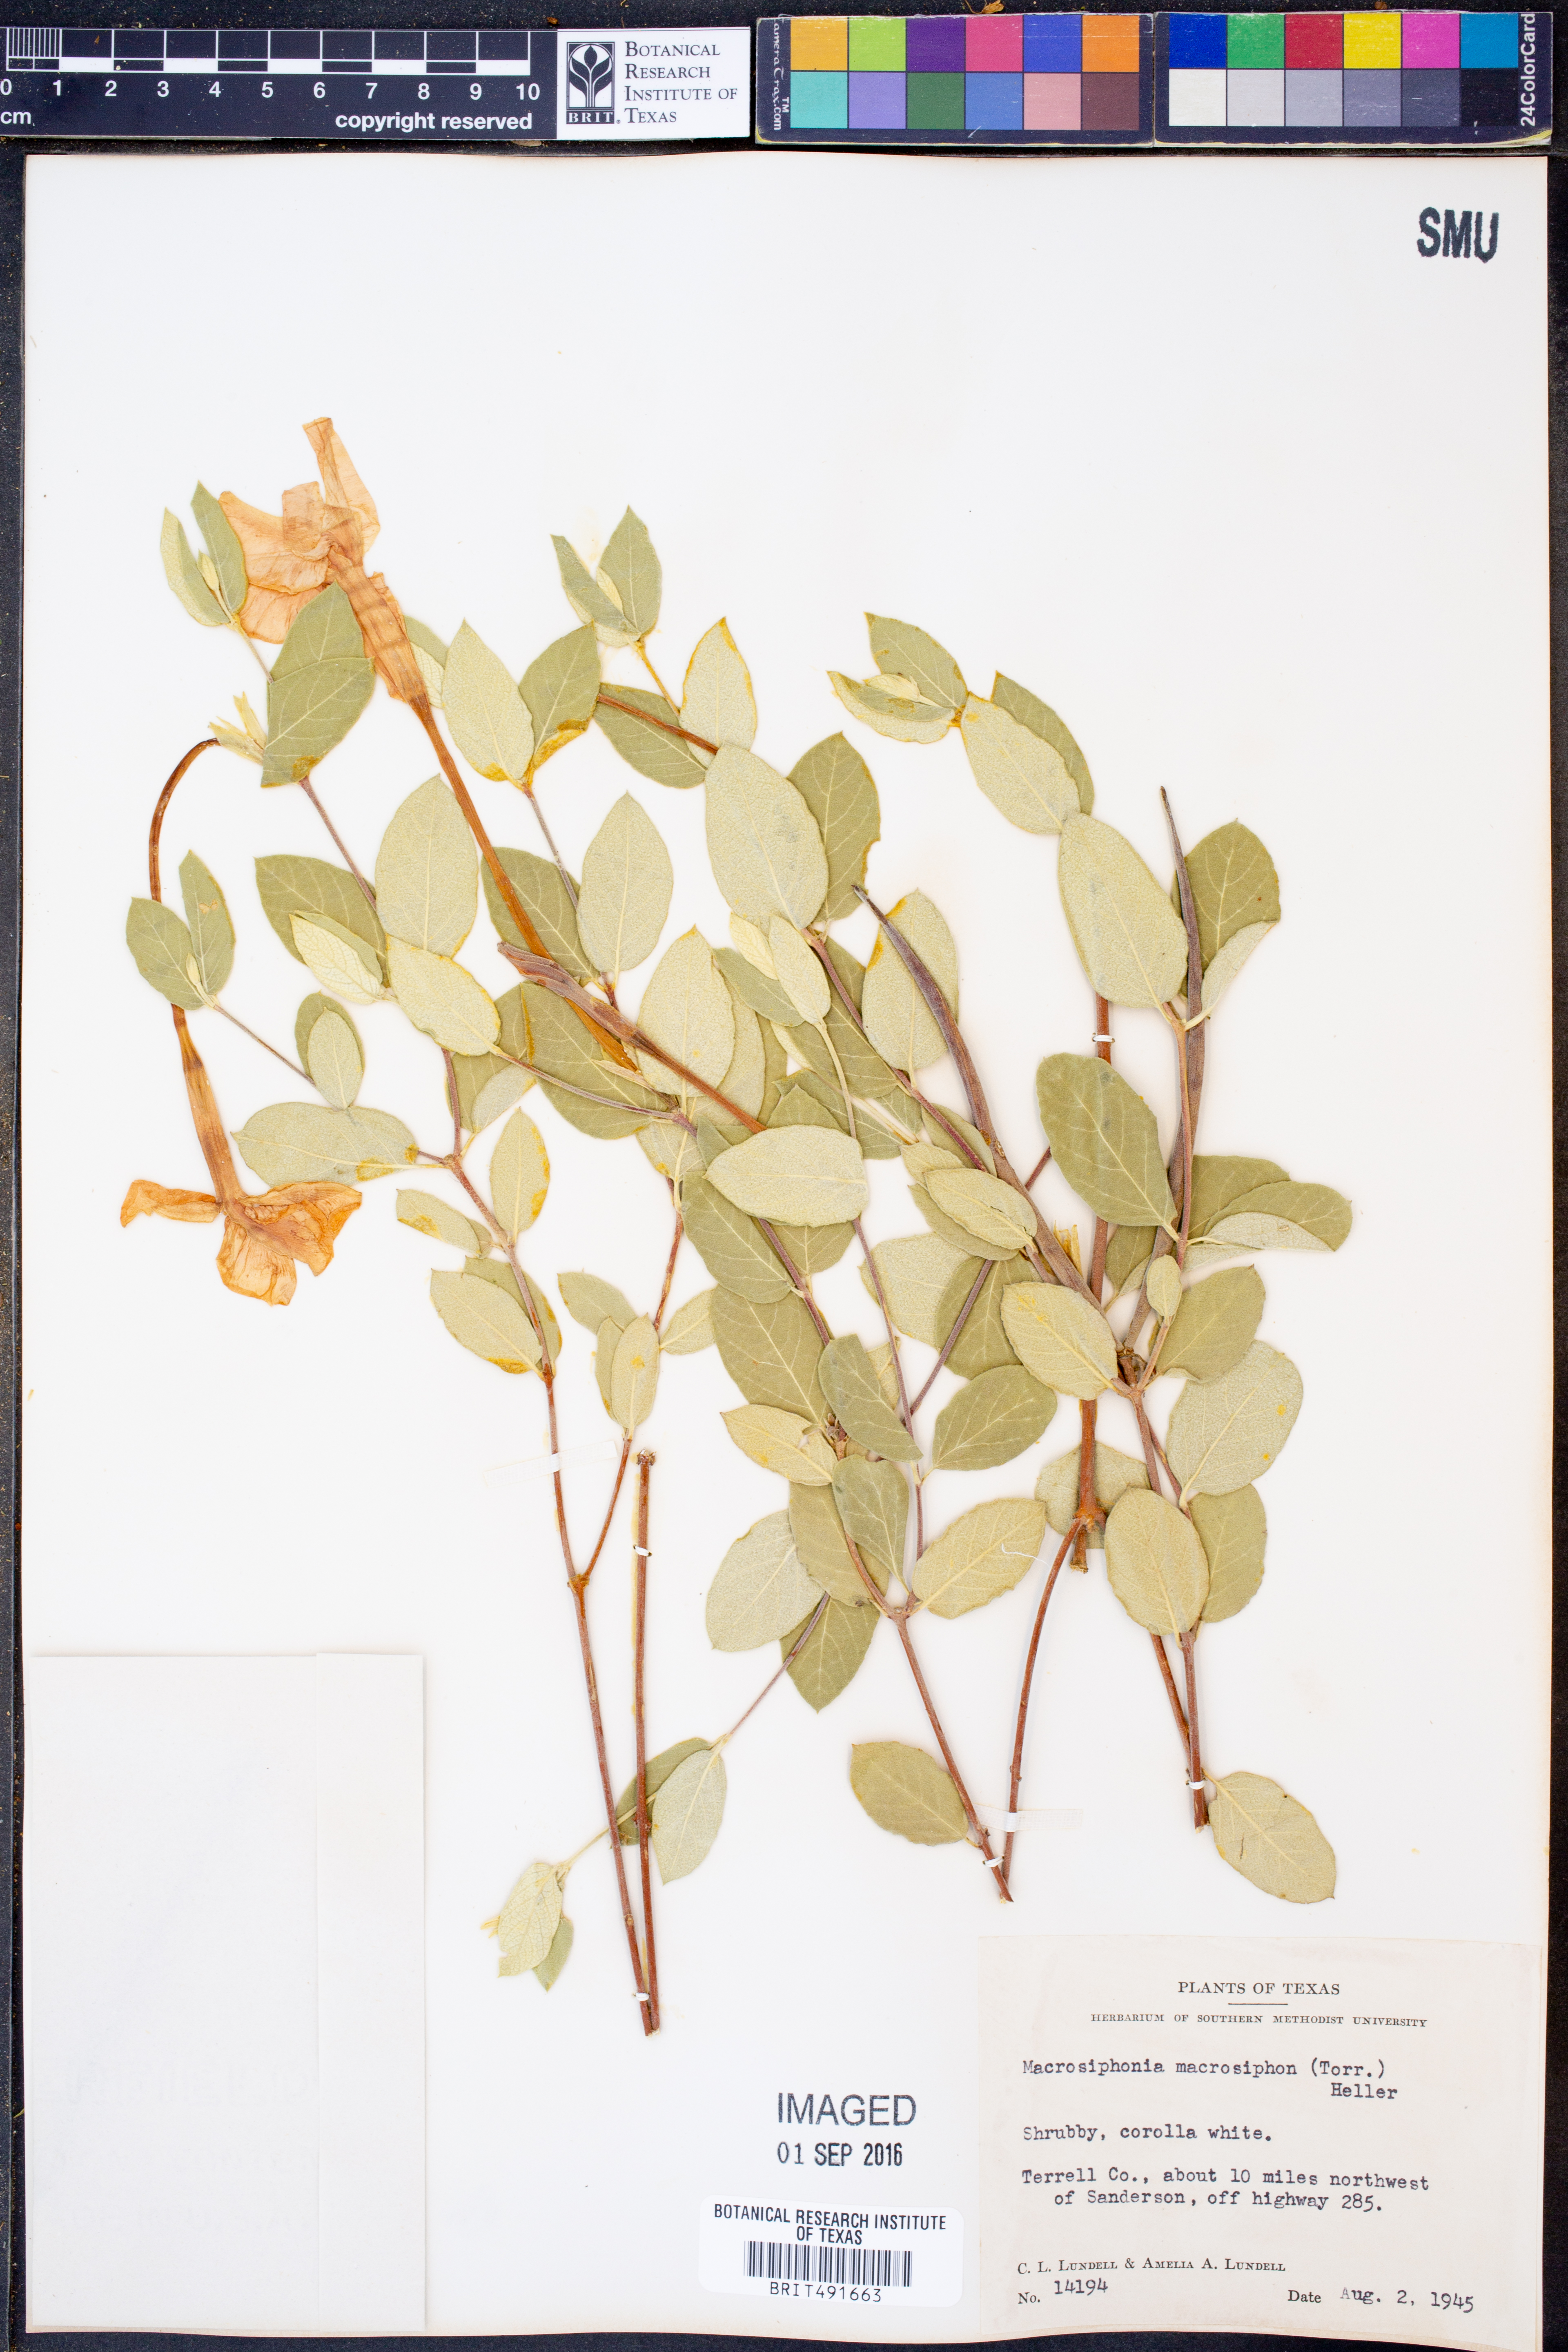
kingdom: Plantae
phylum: Tracheophyta
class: Magnoliopsida
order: Gentianales
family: Apocynaceae
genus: Mandevilla
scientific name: Mandevilla macrosiphon
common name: Plateau rocktrumpet
